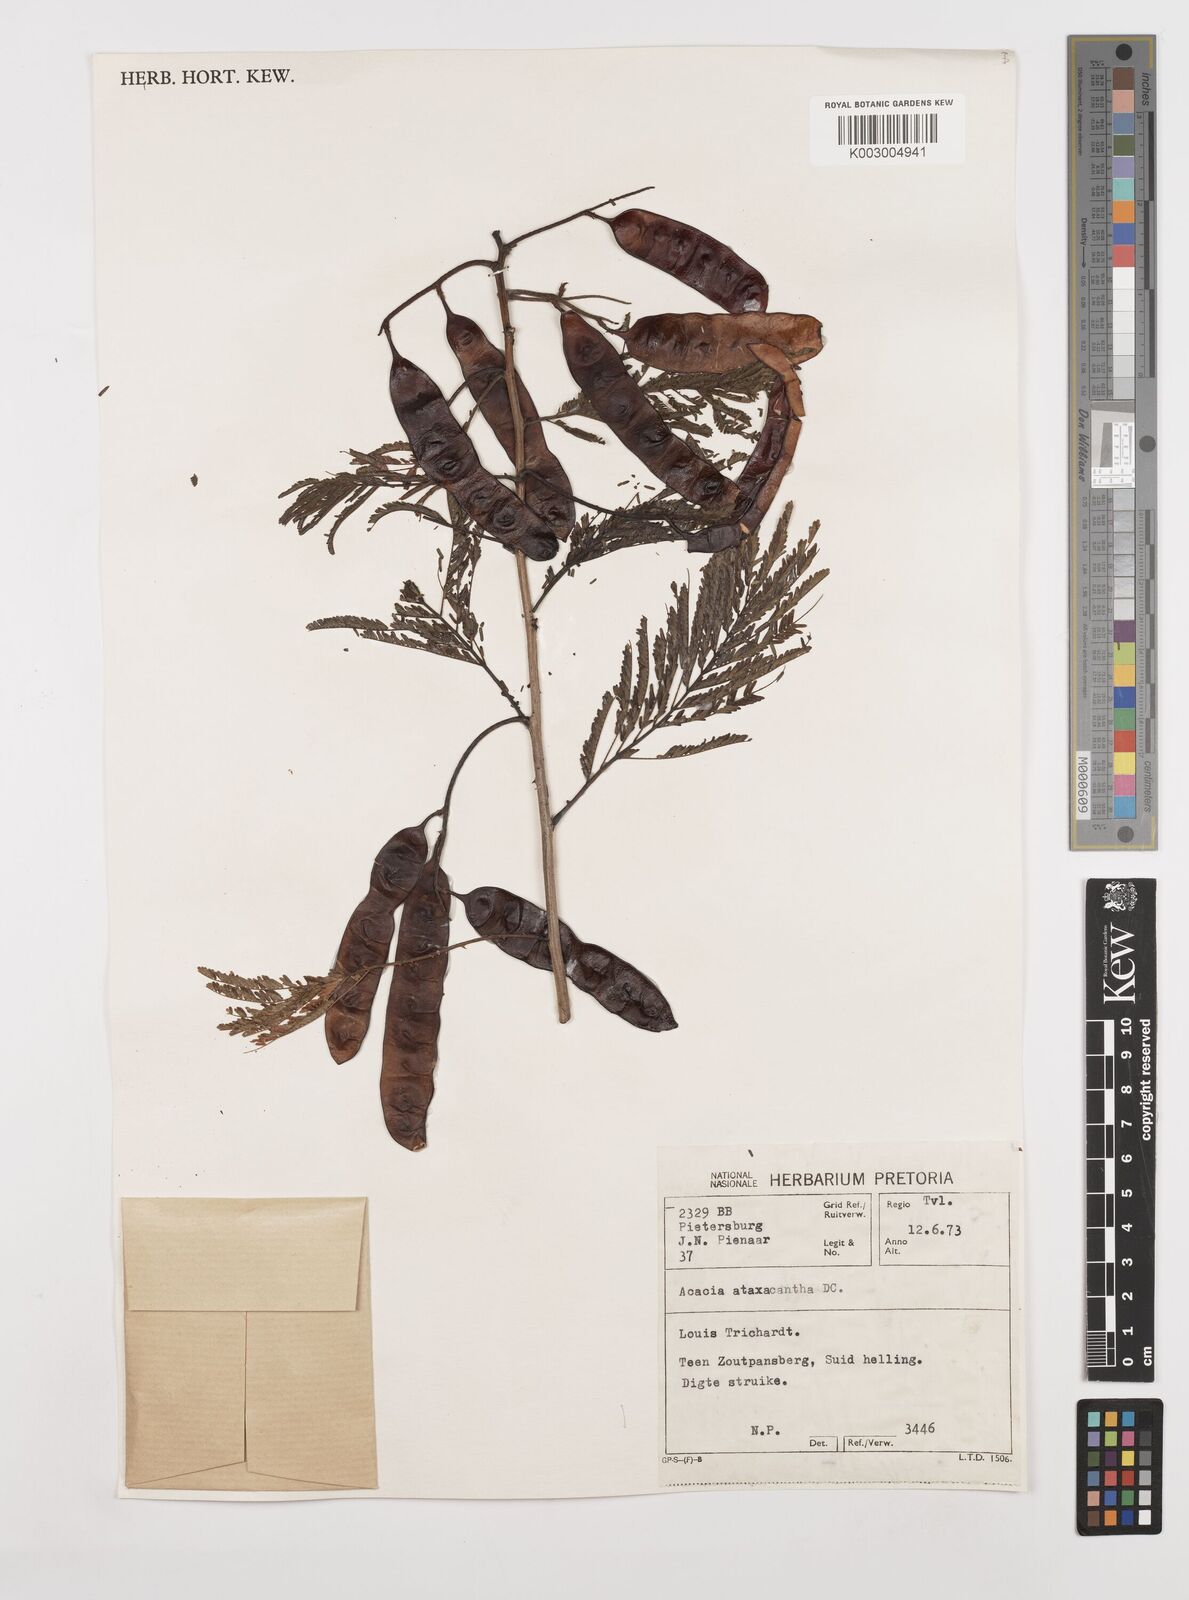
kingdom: Plantae
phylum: Tracheophyta
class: Magnoliopsida
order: Fabales
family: Fabaceae
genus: Senegalia
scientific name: Senegalia ataxacantha
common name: Flame acacia
